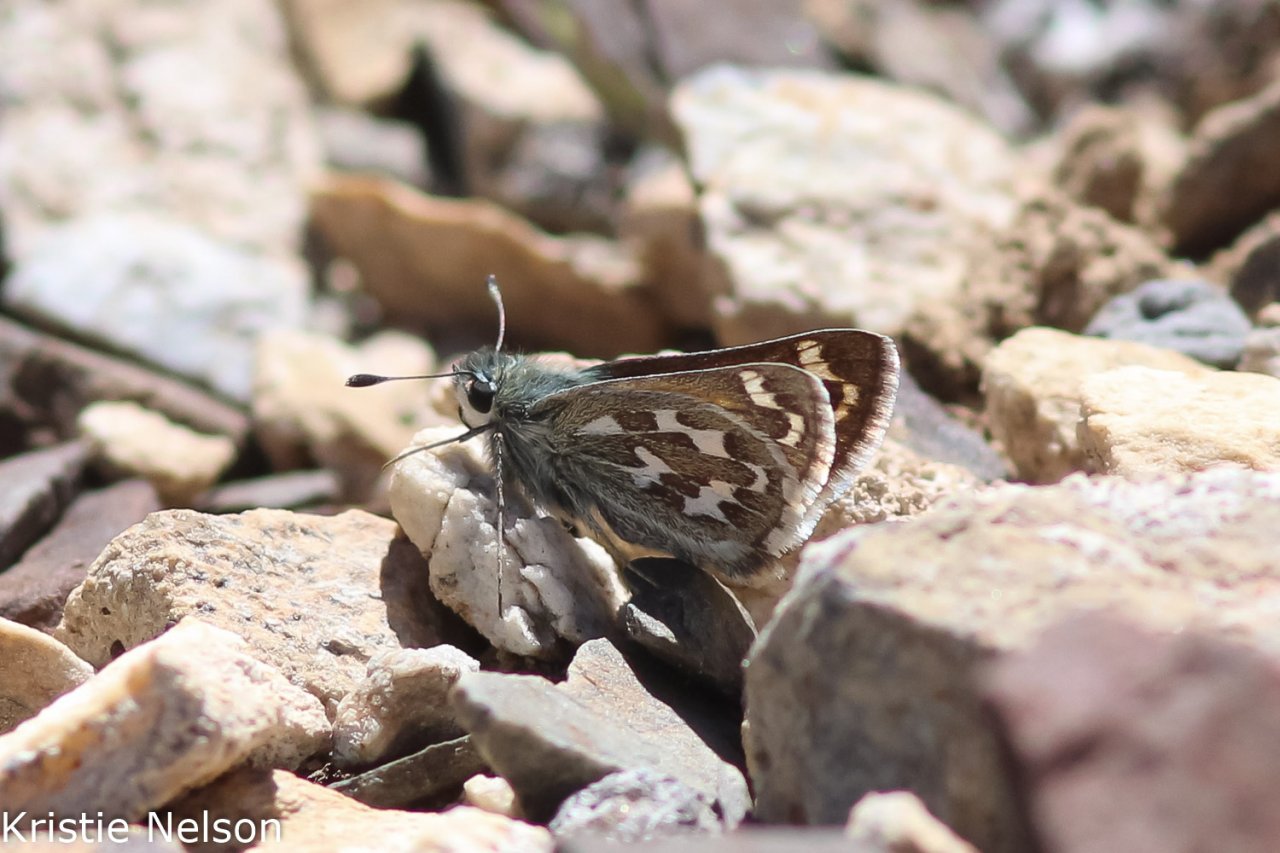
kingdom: Animalia
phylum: Arthropoda
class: Insecta
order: Lepidoptera
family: Hesperiidae
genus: Hesperia
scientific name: Hesperia uncas
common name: Uncas Skipper
